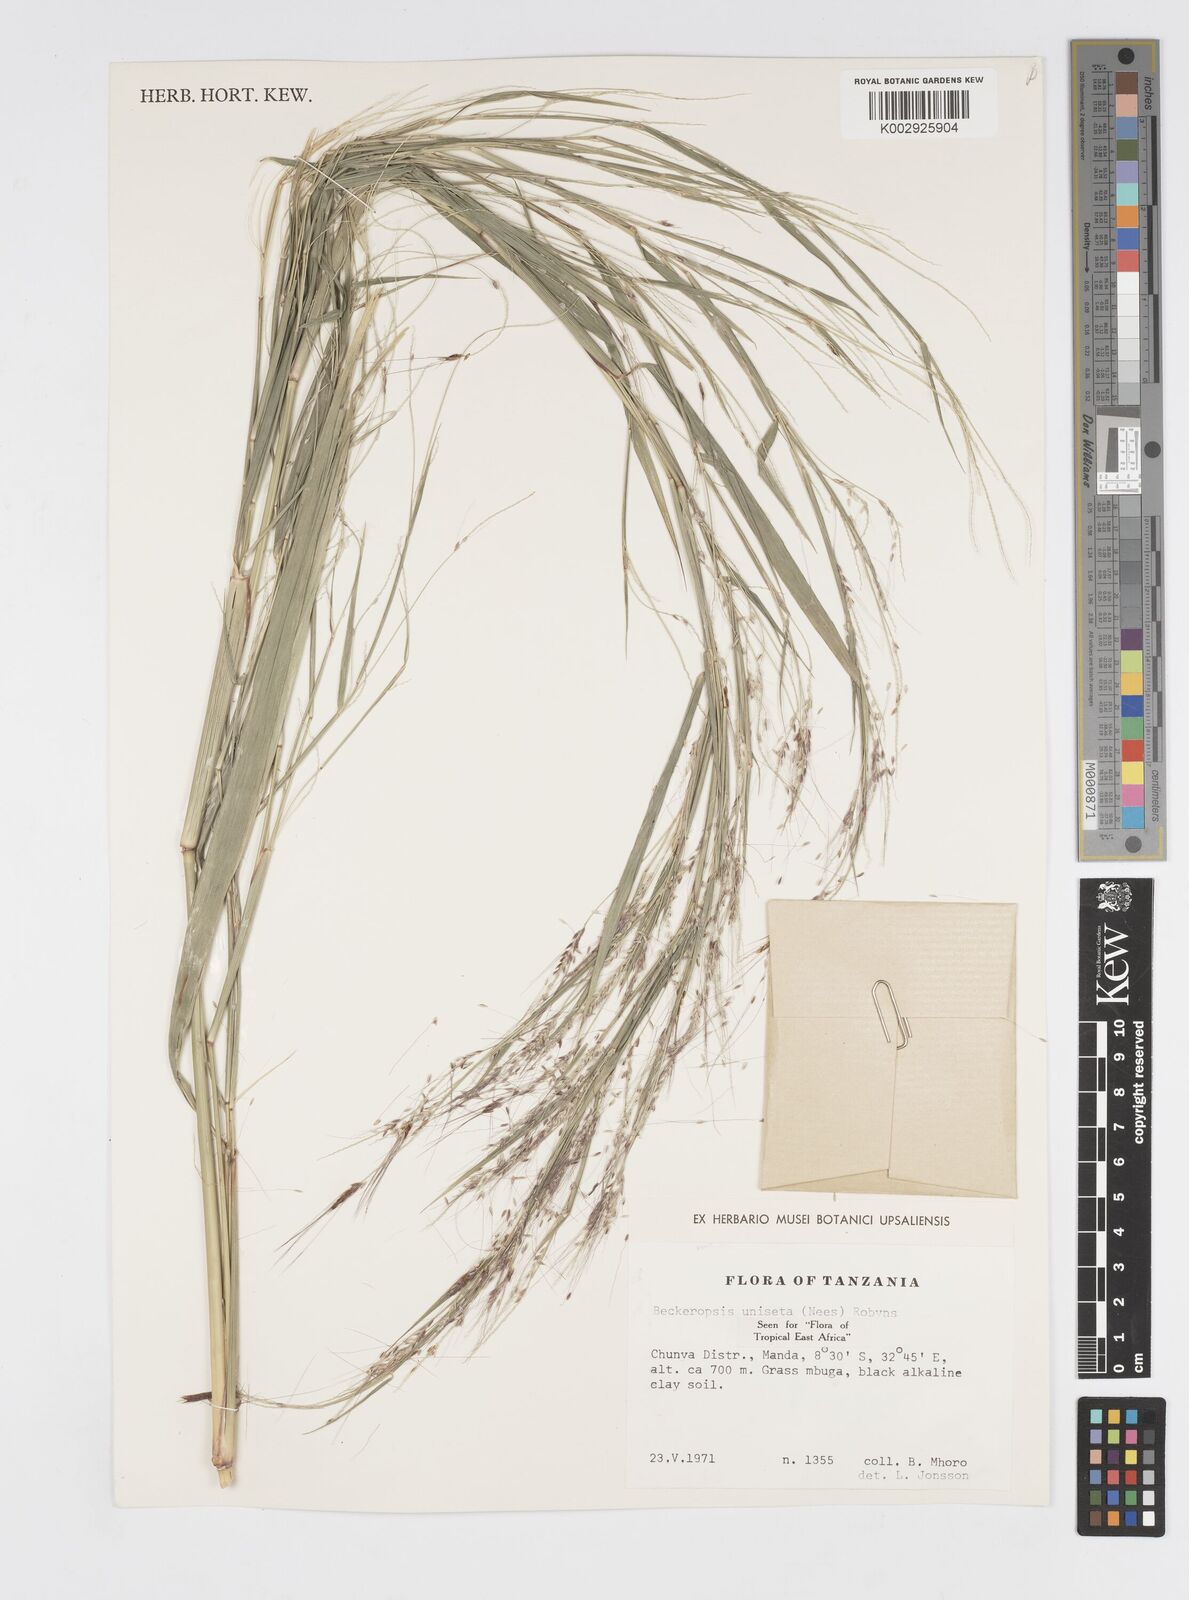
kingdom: Plantae
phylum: Tracheophyta
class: Liliopsida
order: Poales
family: Poaceae
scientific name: Poaceae
